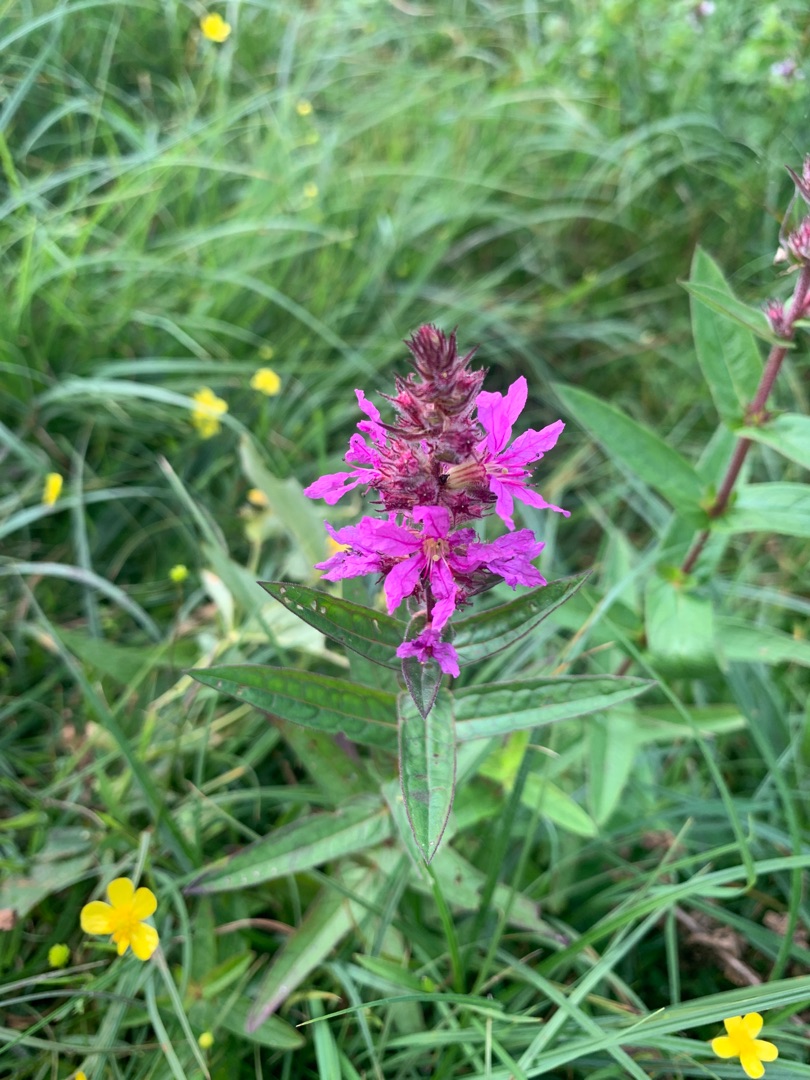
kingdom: Plantae
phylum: Tracheophyta
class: Magnoliopsida
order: Myrtales
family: Lythraceae
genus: Lythrum
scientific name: Lythrum salicaria
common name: Kattehale
